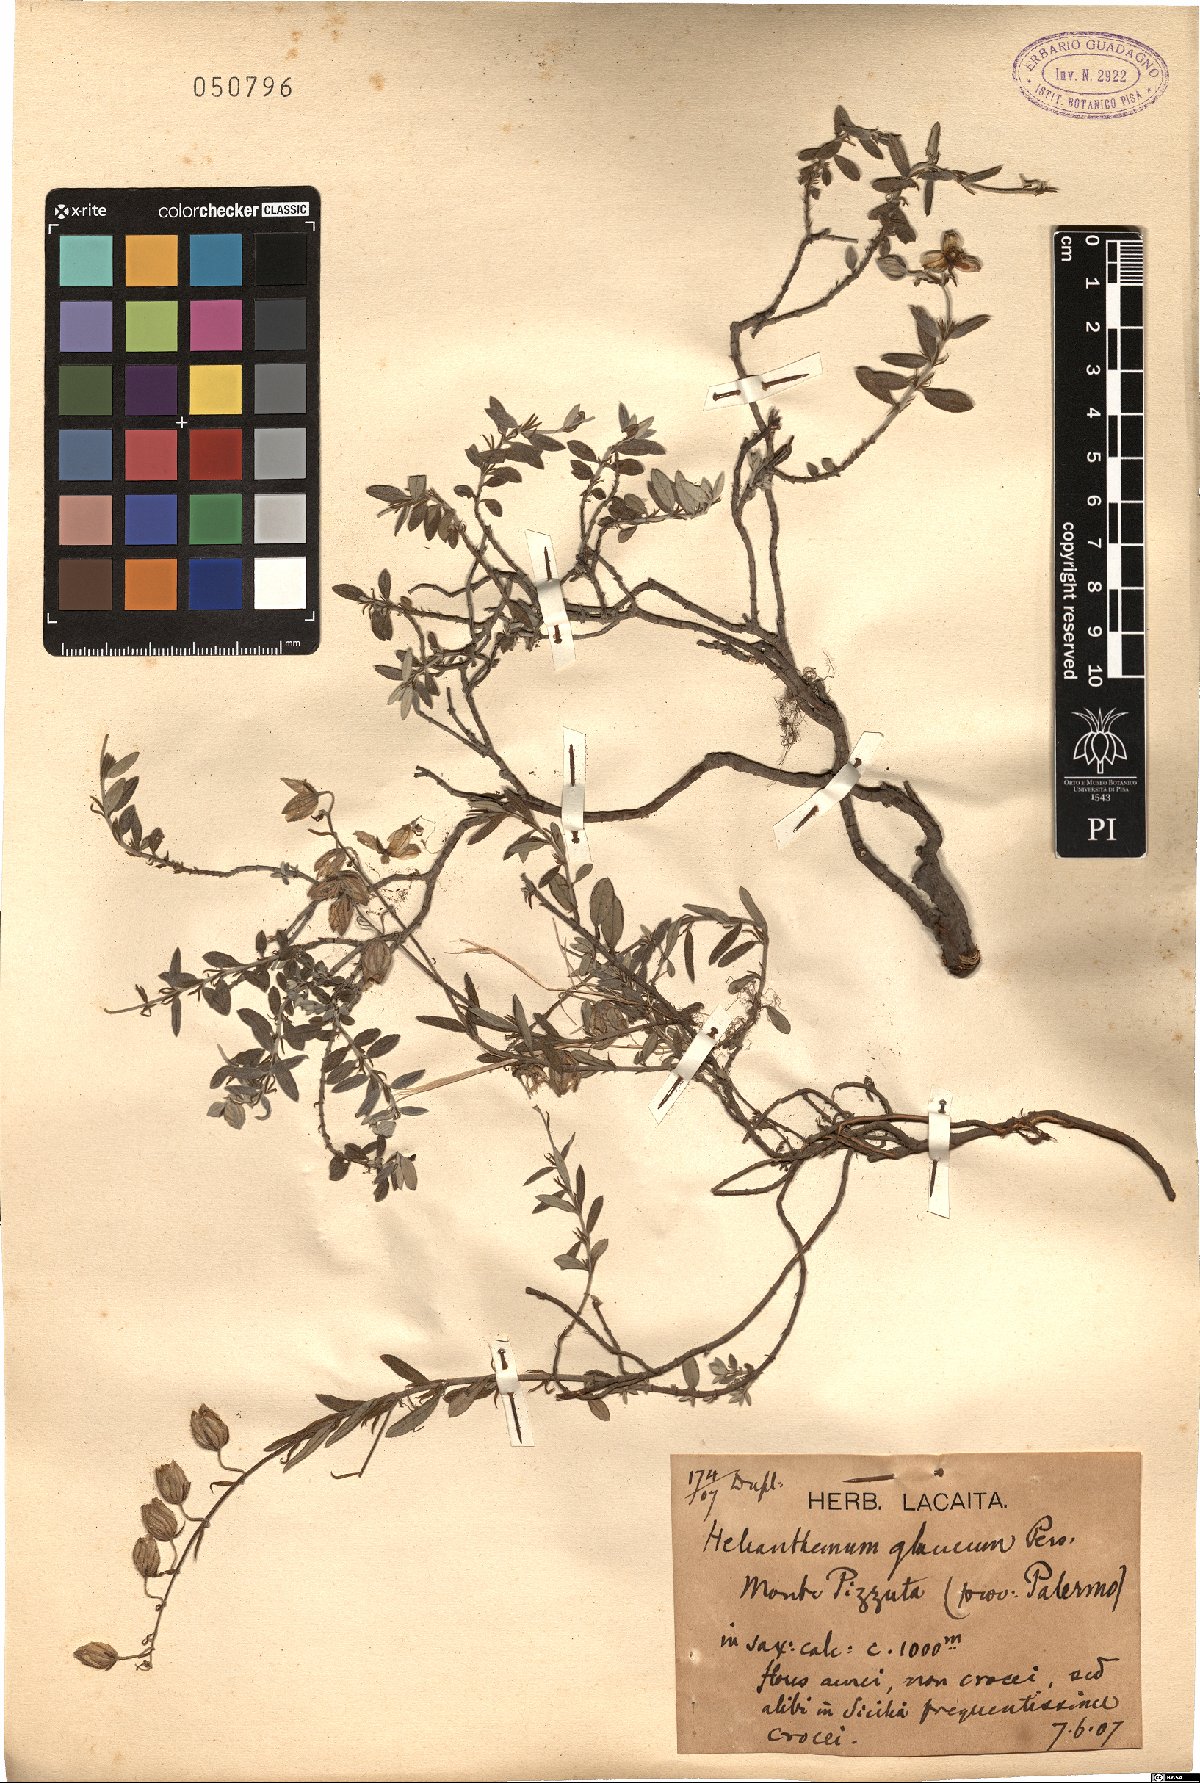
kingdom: Plantae
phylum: Tracheophyta
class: Magnoliopsida
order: Malvales
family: Cistaceae
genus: Helianthemum
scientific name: Helianthemum
